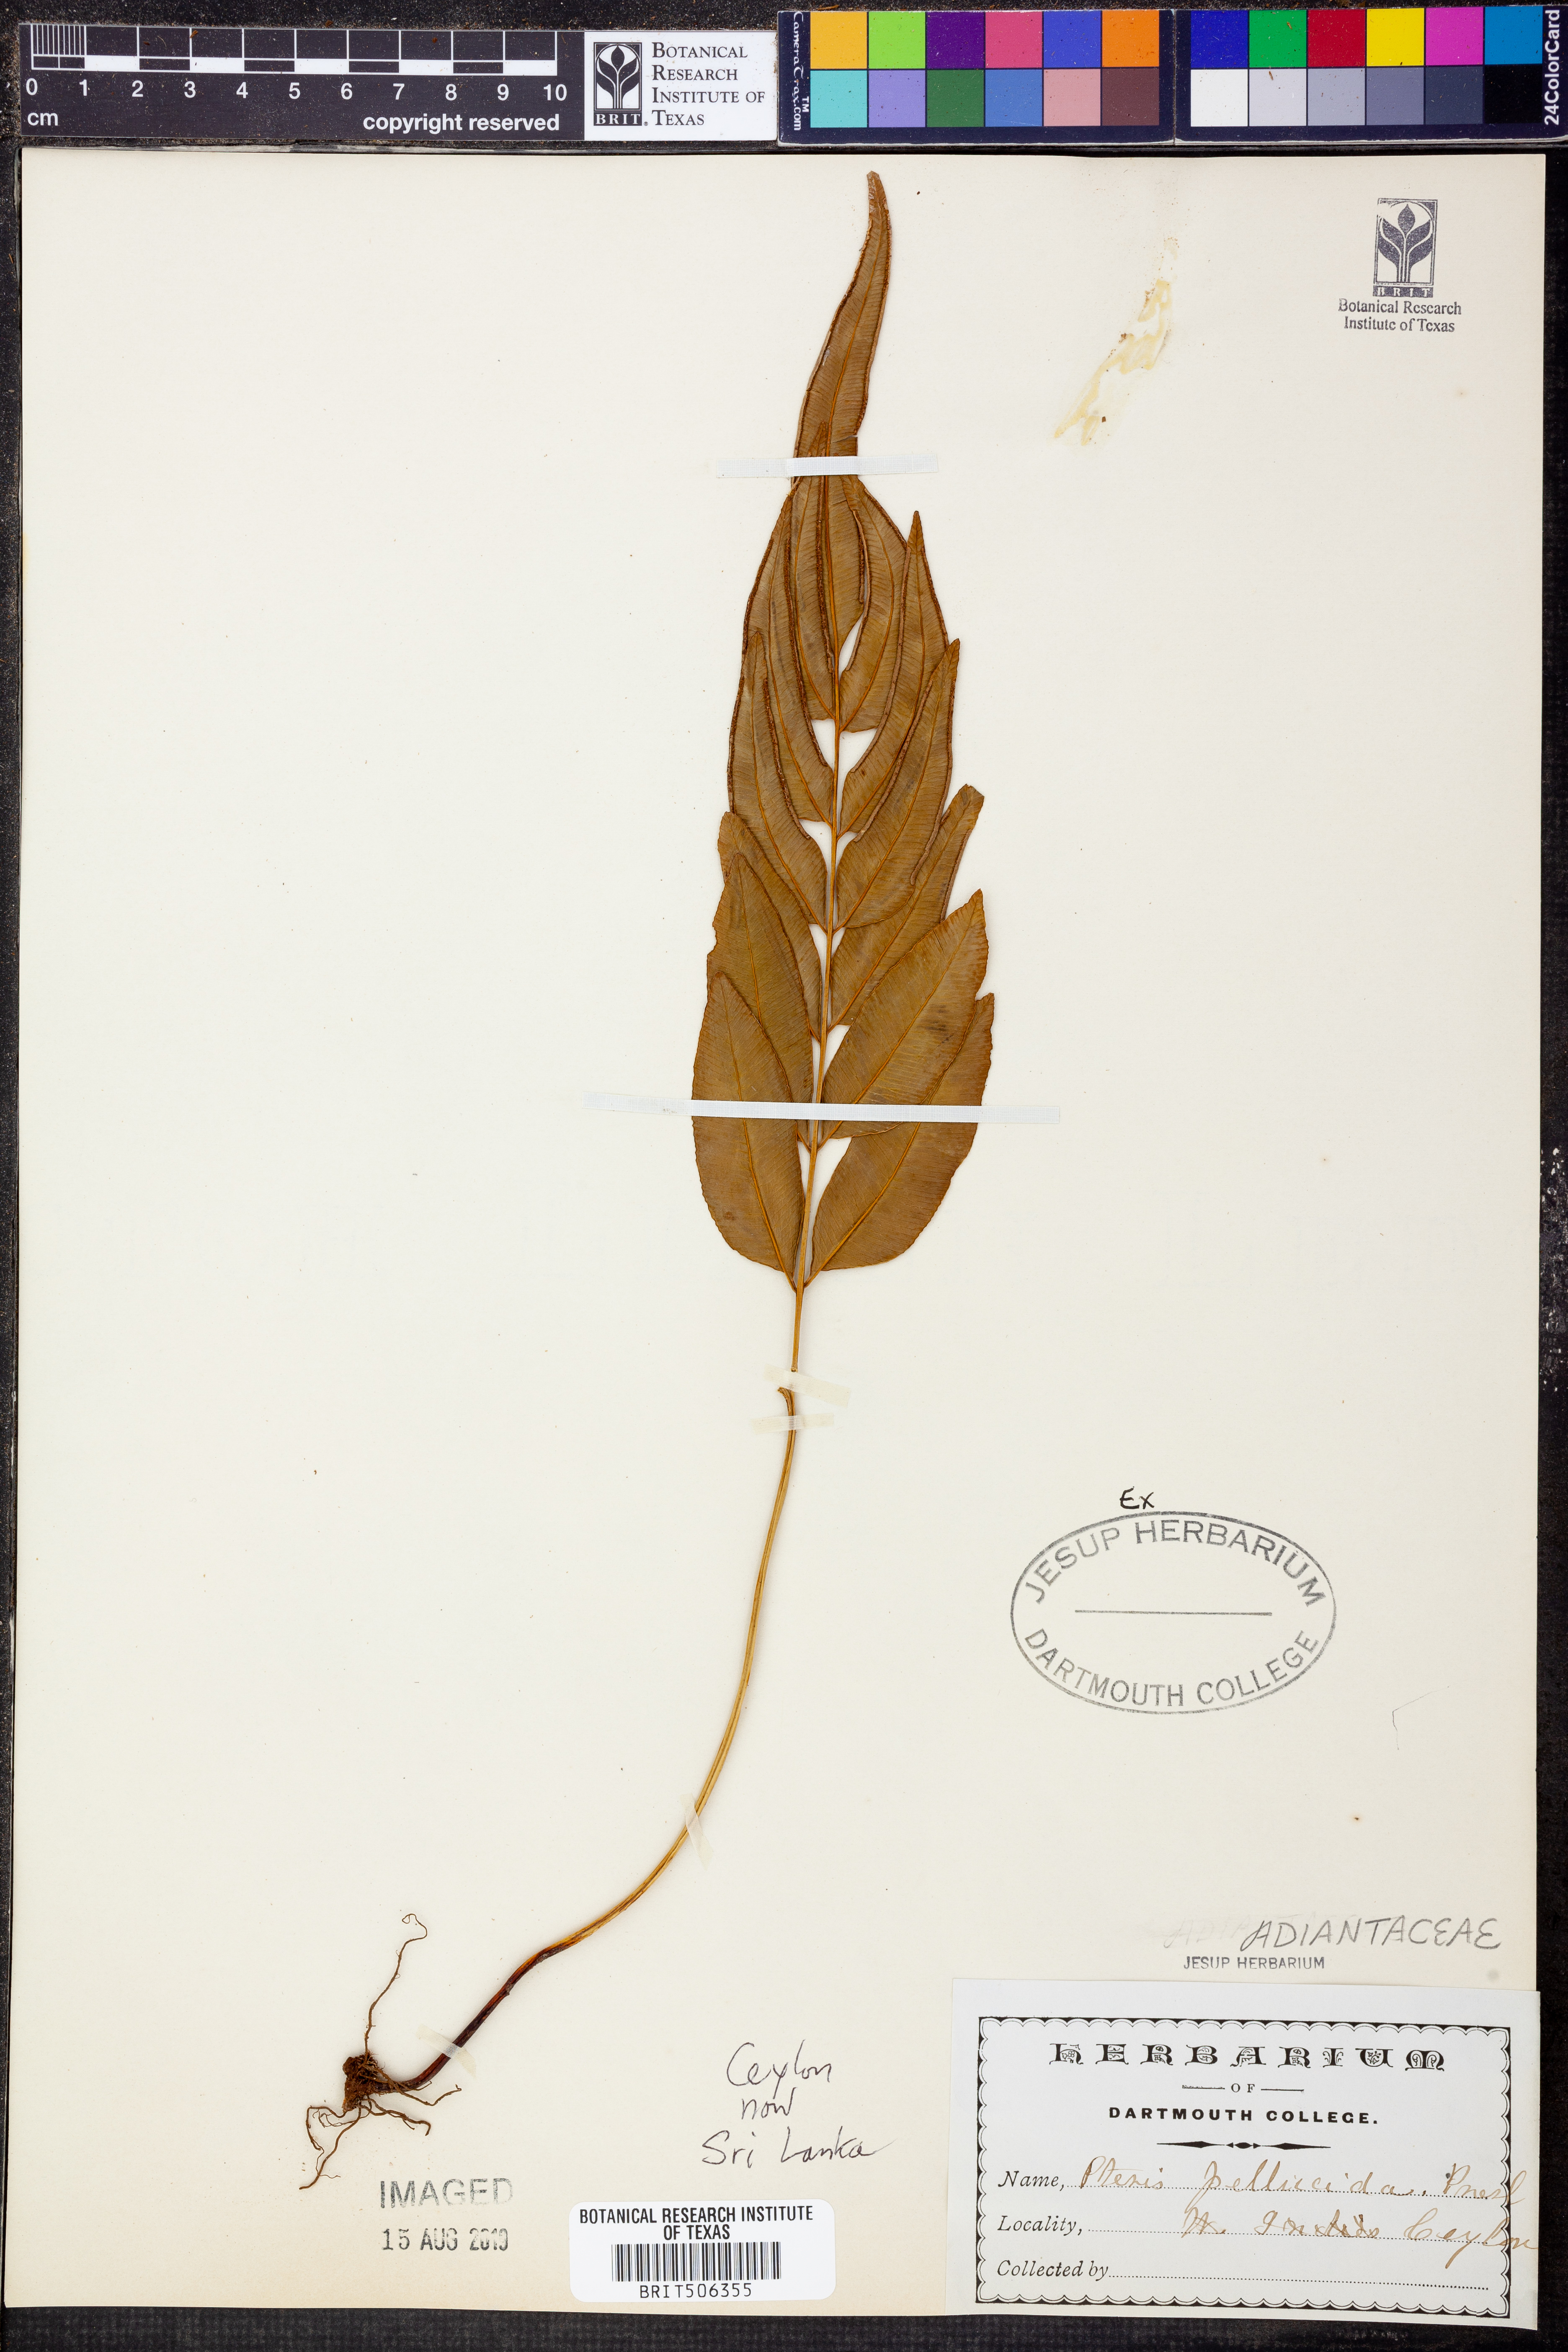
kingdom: Plantae
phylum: Tracheophyta
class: Polypodiopsida
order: Polypodiales
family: Pteridaceae
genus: Pteris
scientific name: Pteris pellucida
